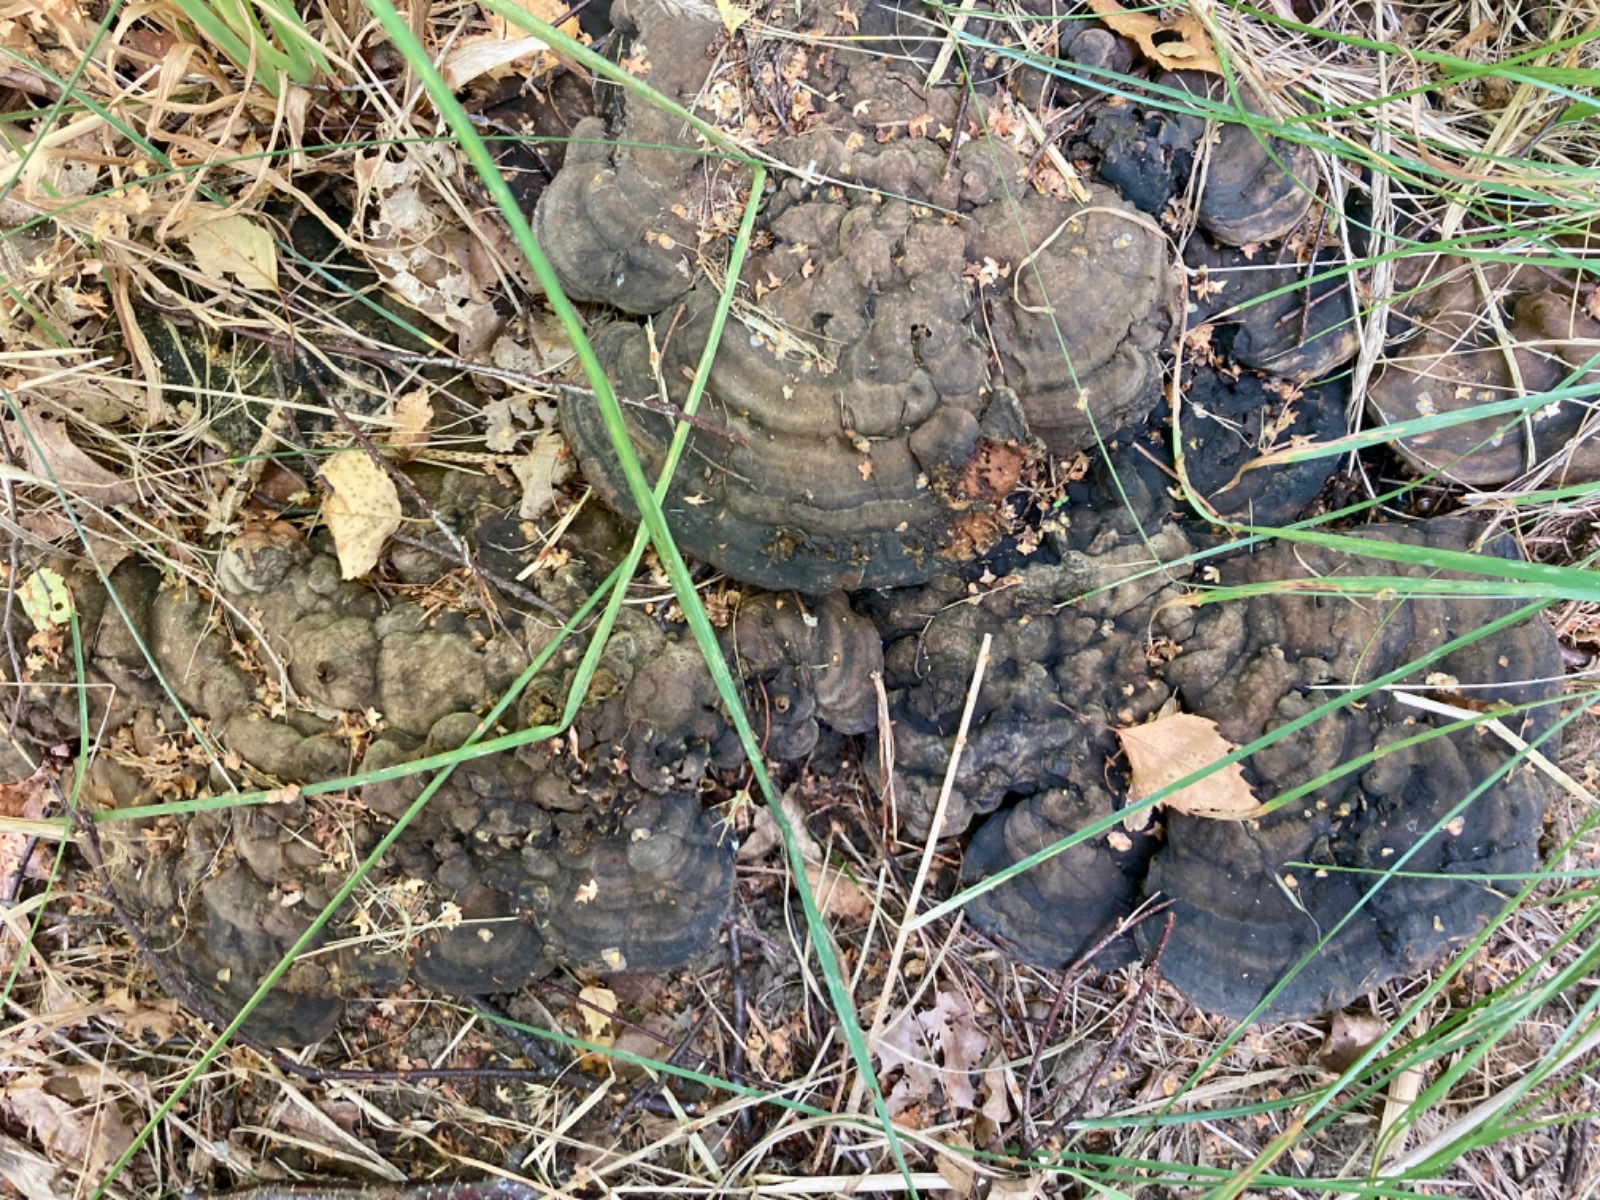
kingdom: Fungi
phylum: Basidiomycota
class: Agaricomycetes
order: Polyporales
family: Polyporaceae
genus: Ganoderma
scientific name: Ganoderma applanatum
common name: flad lakporesvamp
